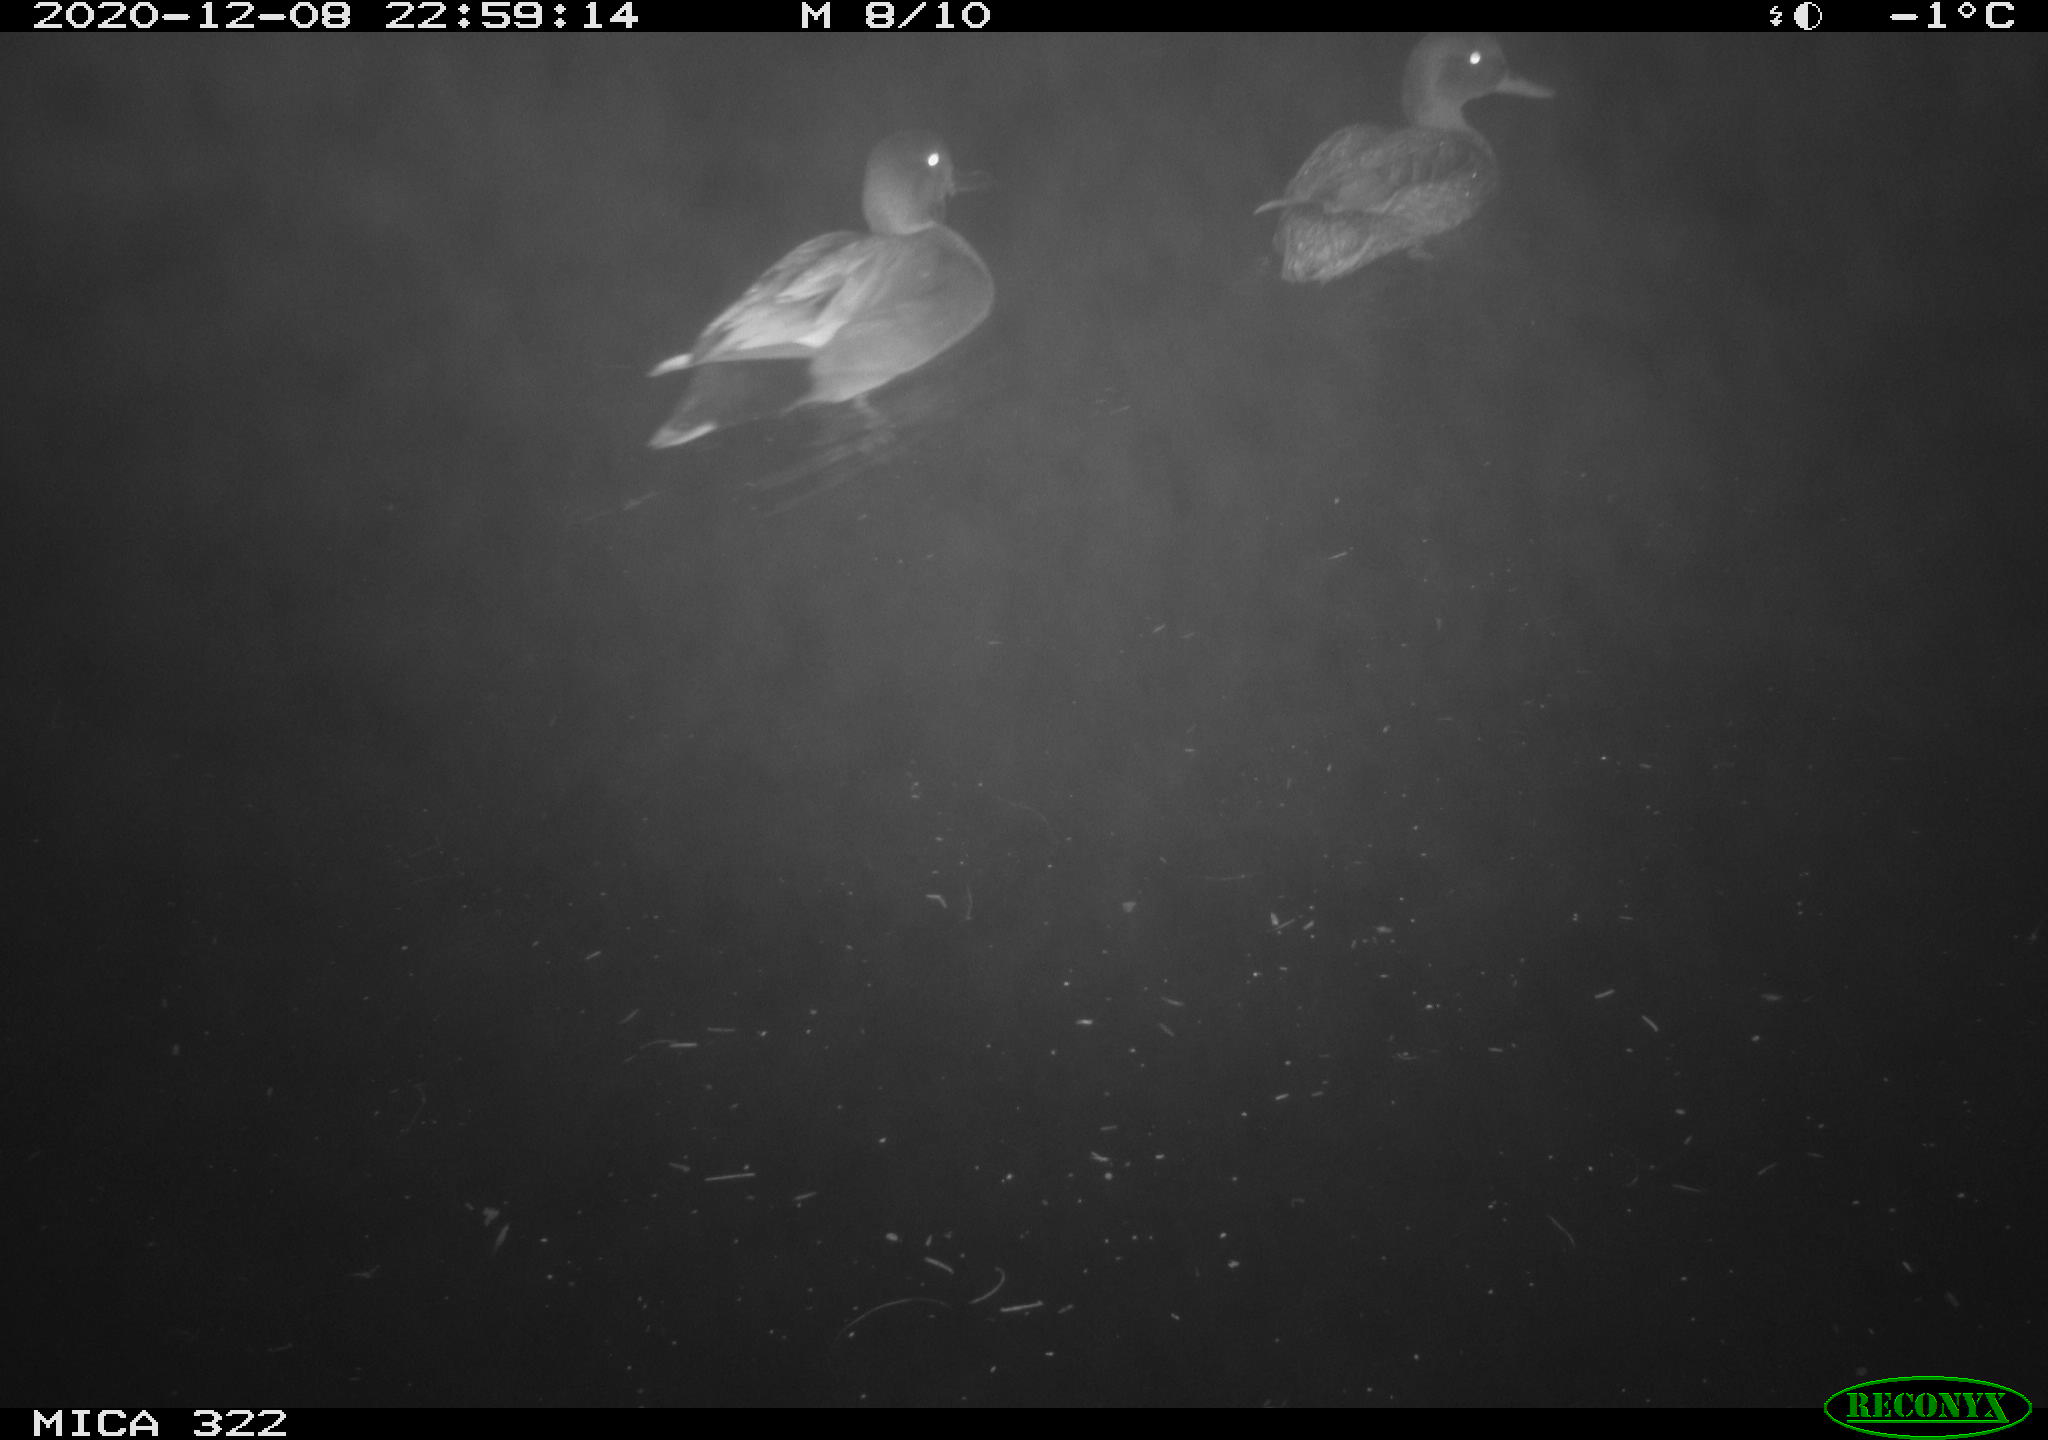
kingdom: Animalia
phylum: Chordata
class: Aves
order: Anseriformes
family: Anatidae
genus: Mareca
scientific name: Mareca strepera
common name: Gadwall
